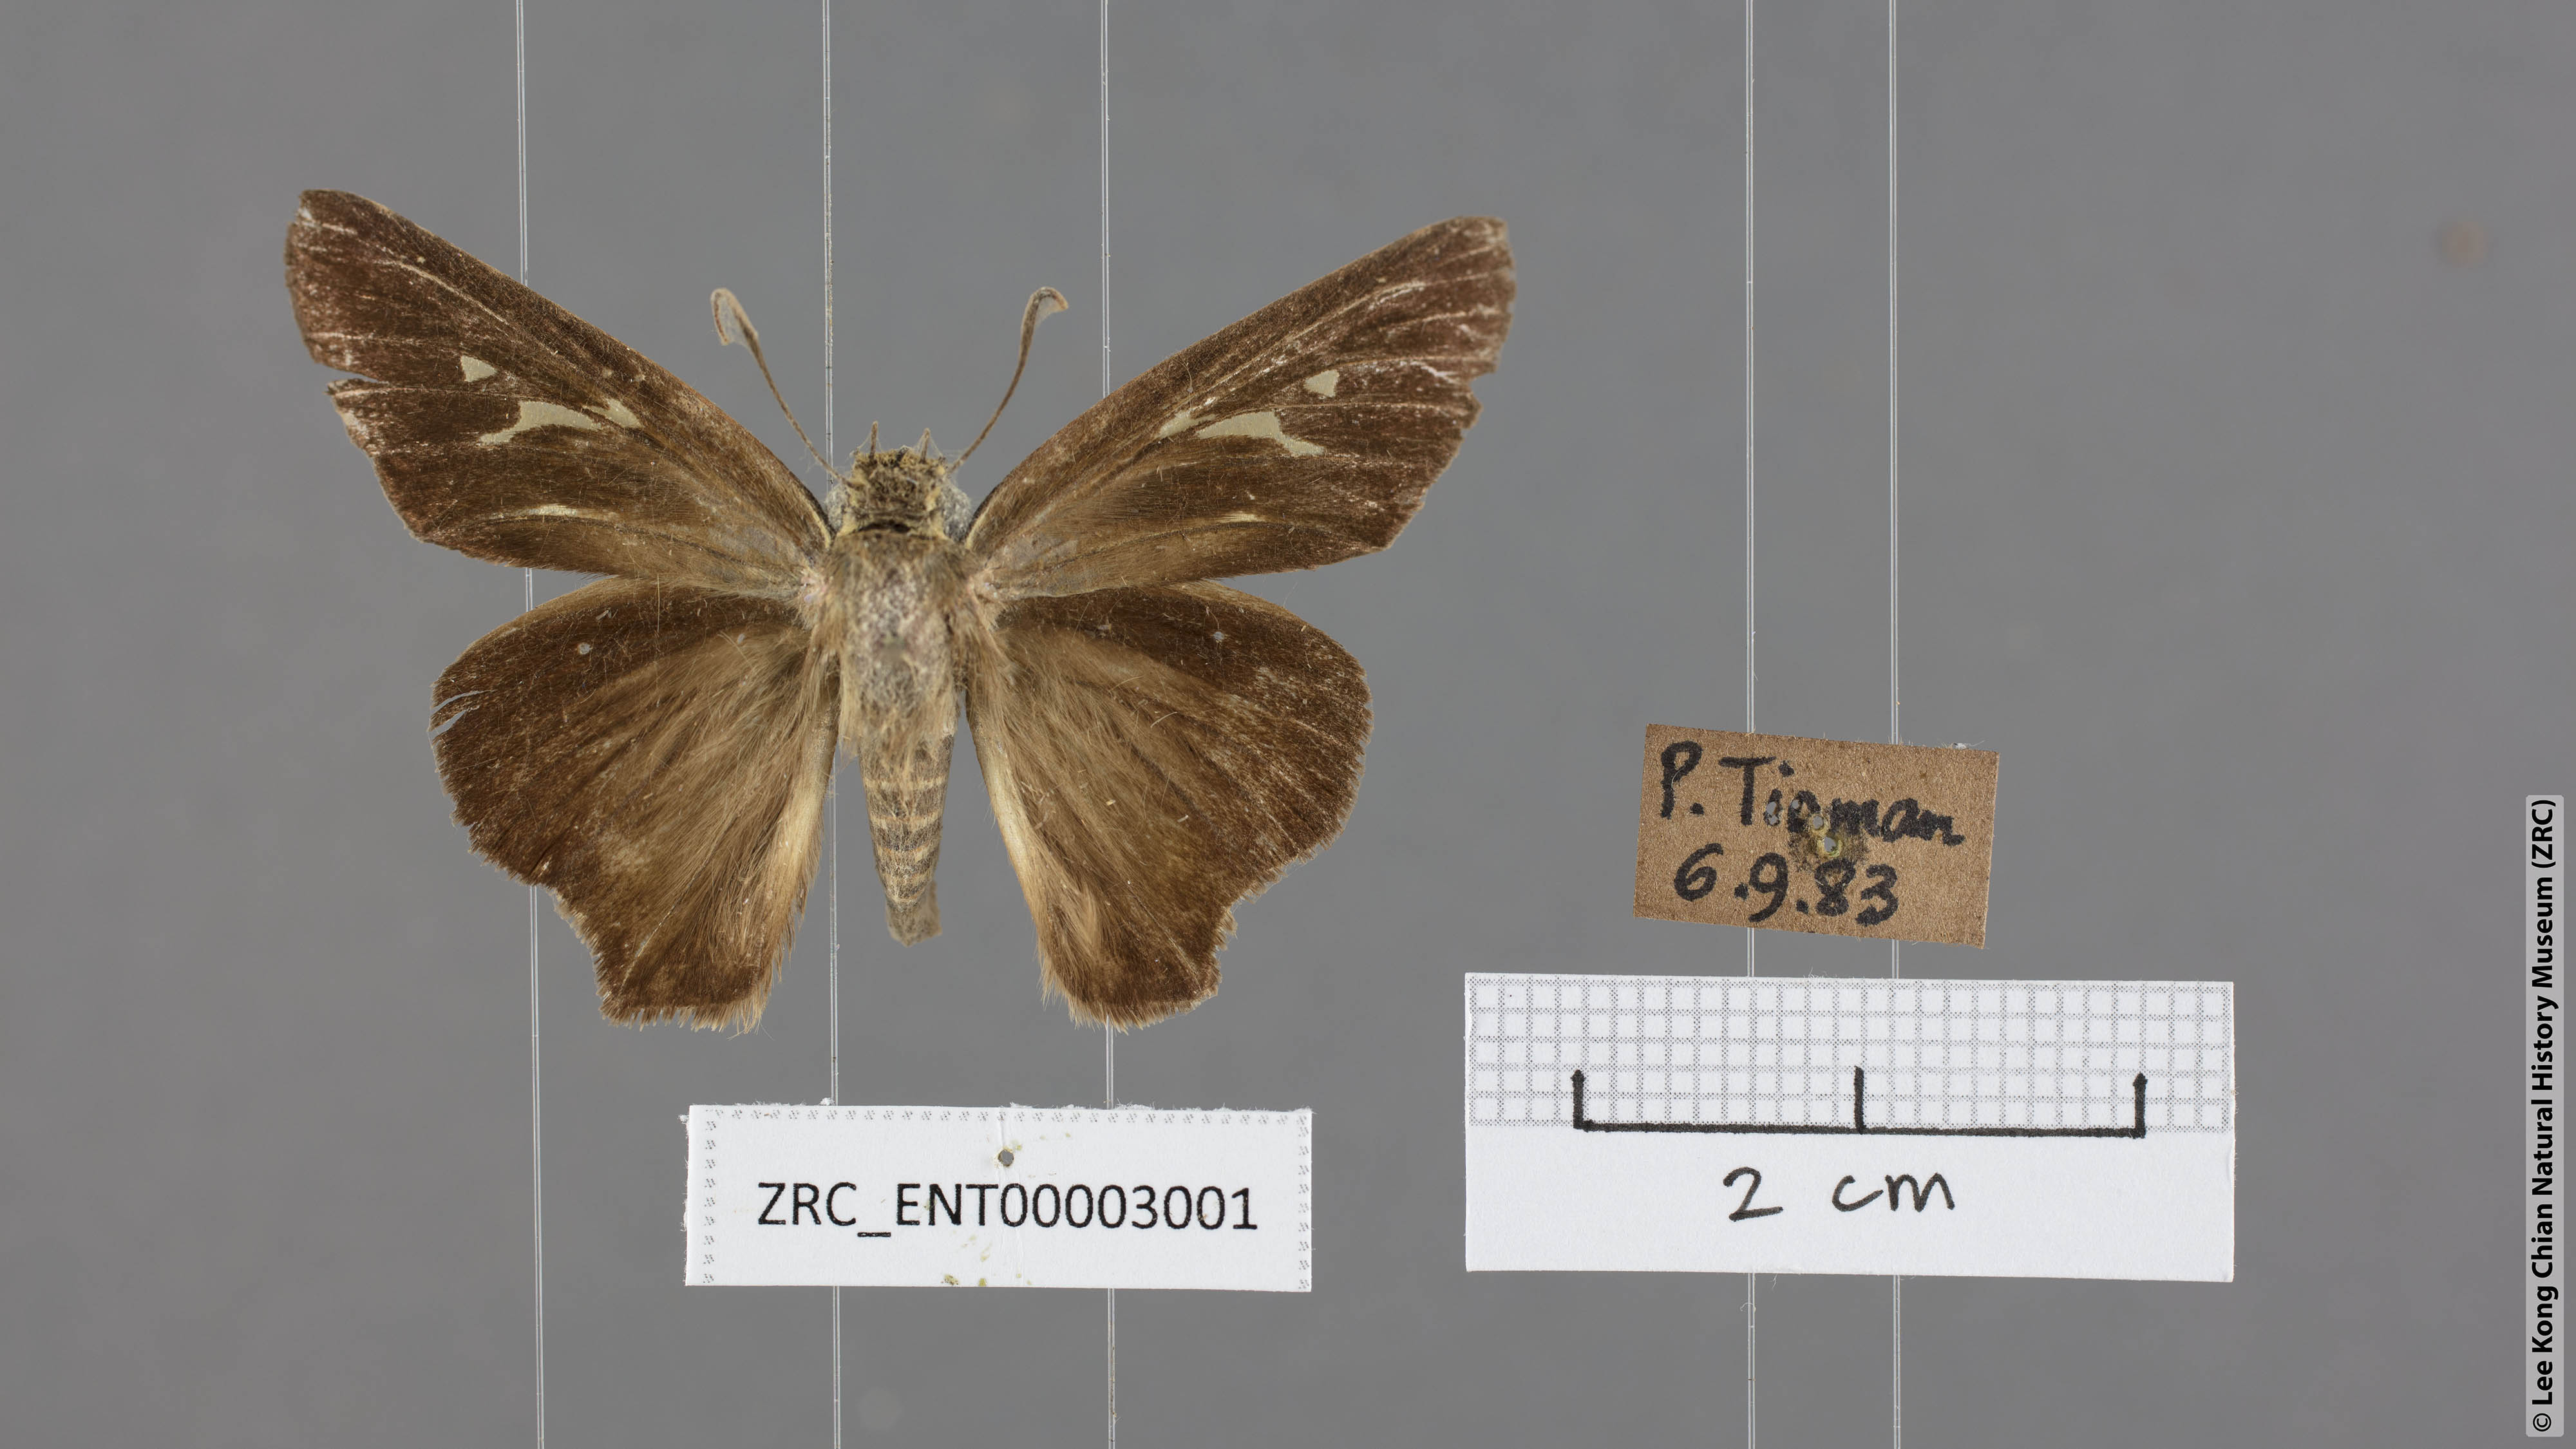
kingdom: Animalia
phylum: Arthropoda
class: Insecta
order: Lepidoptera
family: Hesperiidae
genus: Badamia
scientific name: Badamia exclamationis
